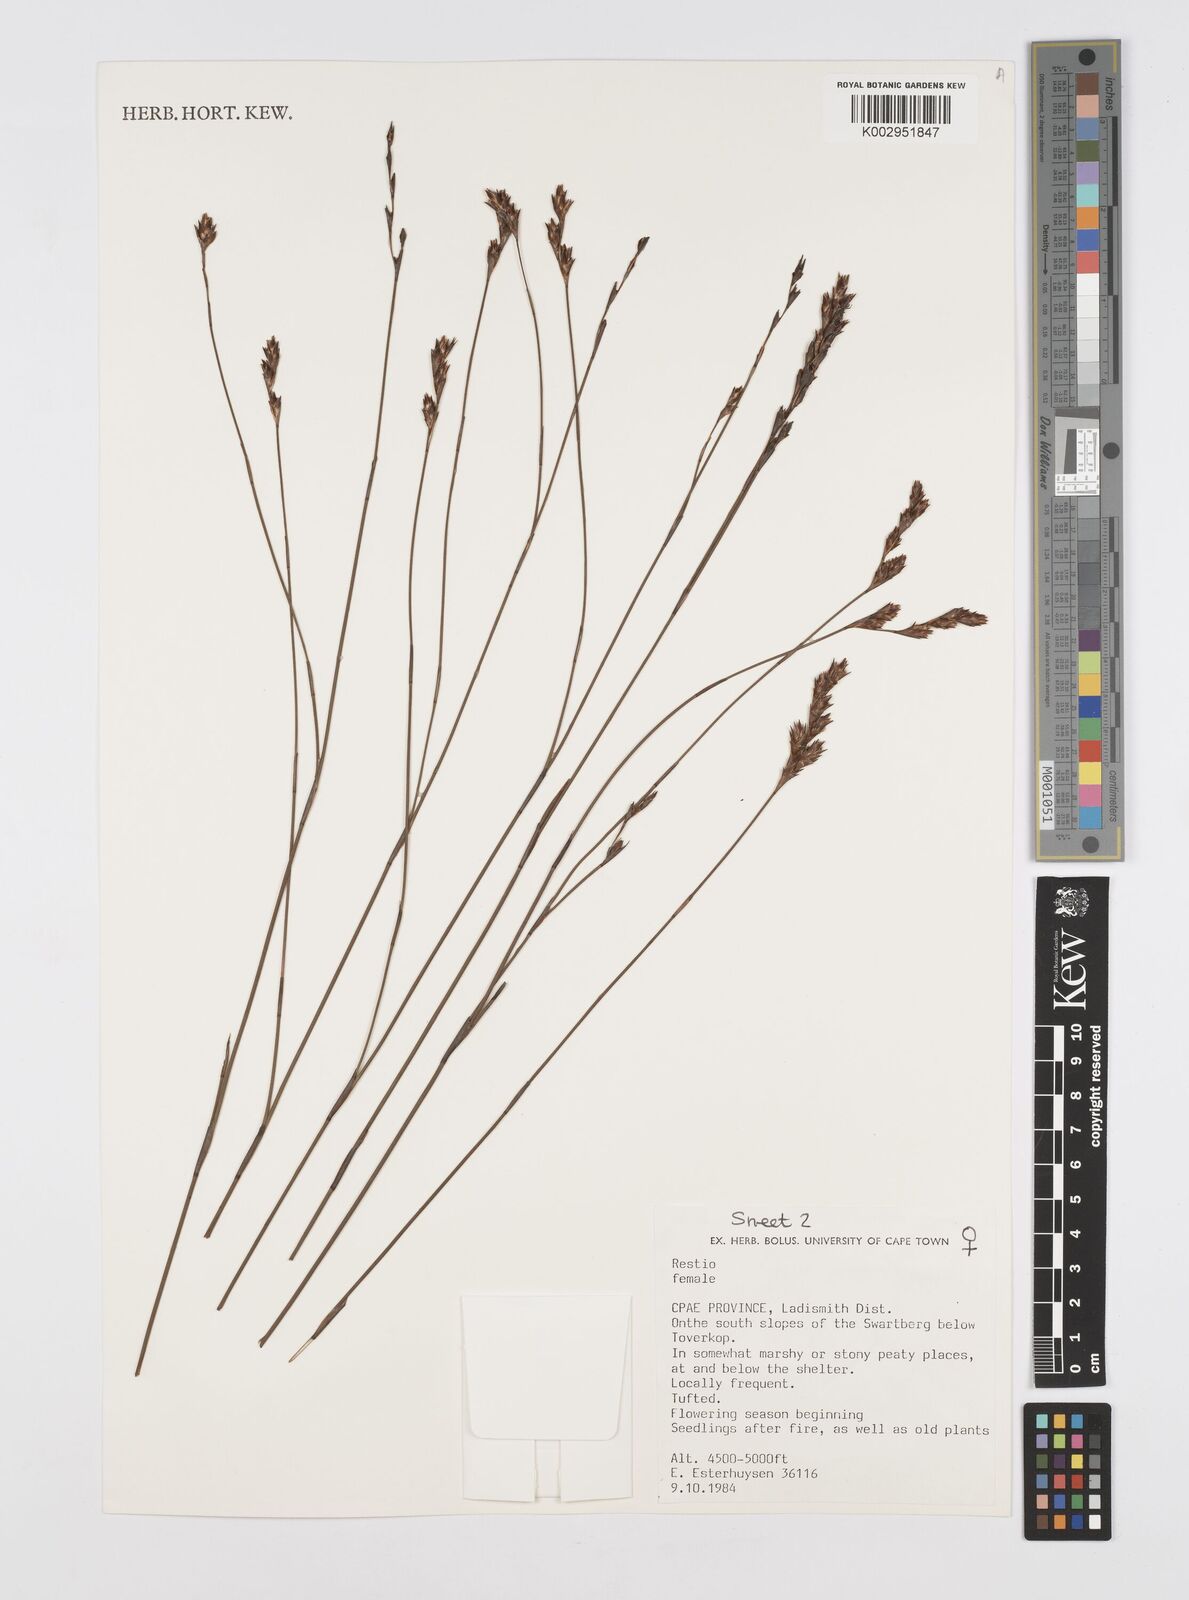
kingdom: Plantae
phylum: Tracheophyta
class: Liliopsida
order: Poales
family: Restionaceae
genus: Restio
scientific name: Restio
